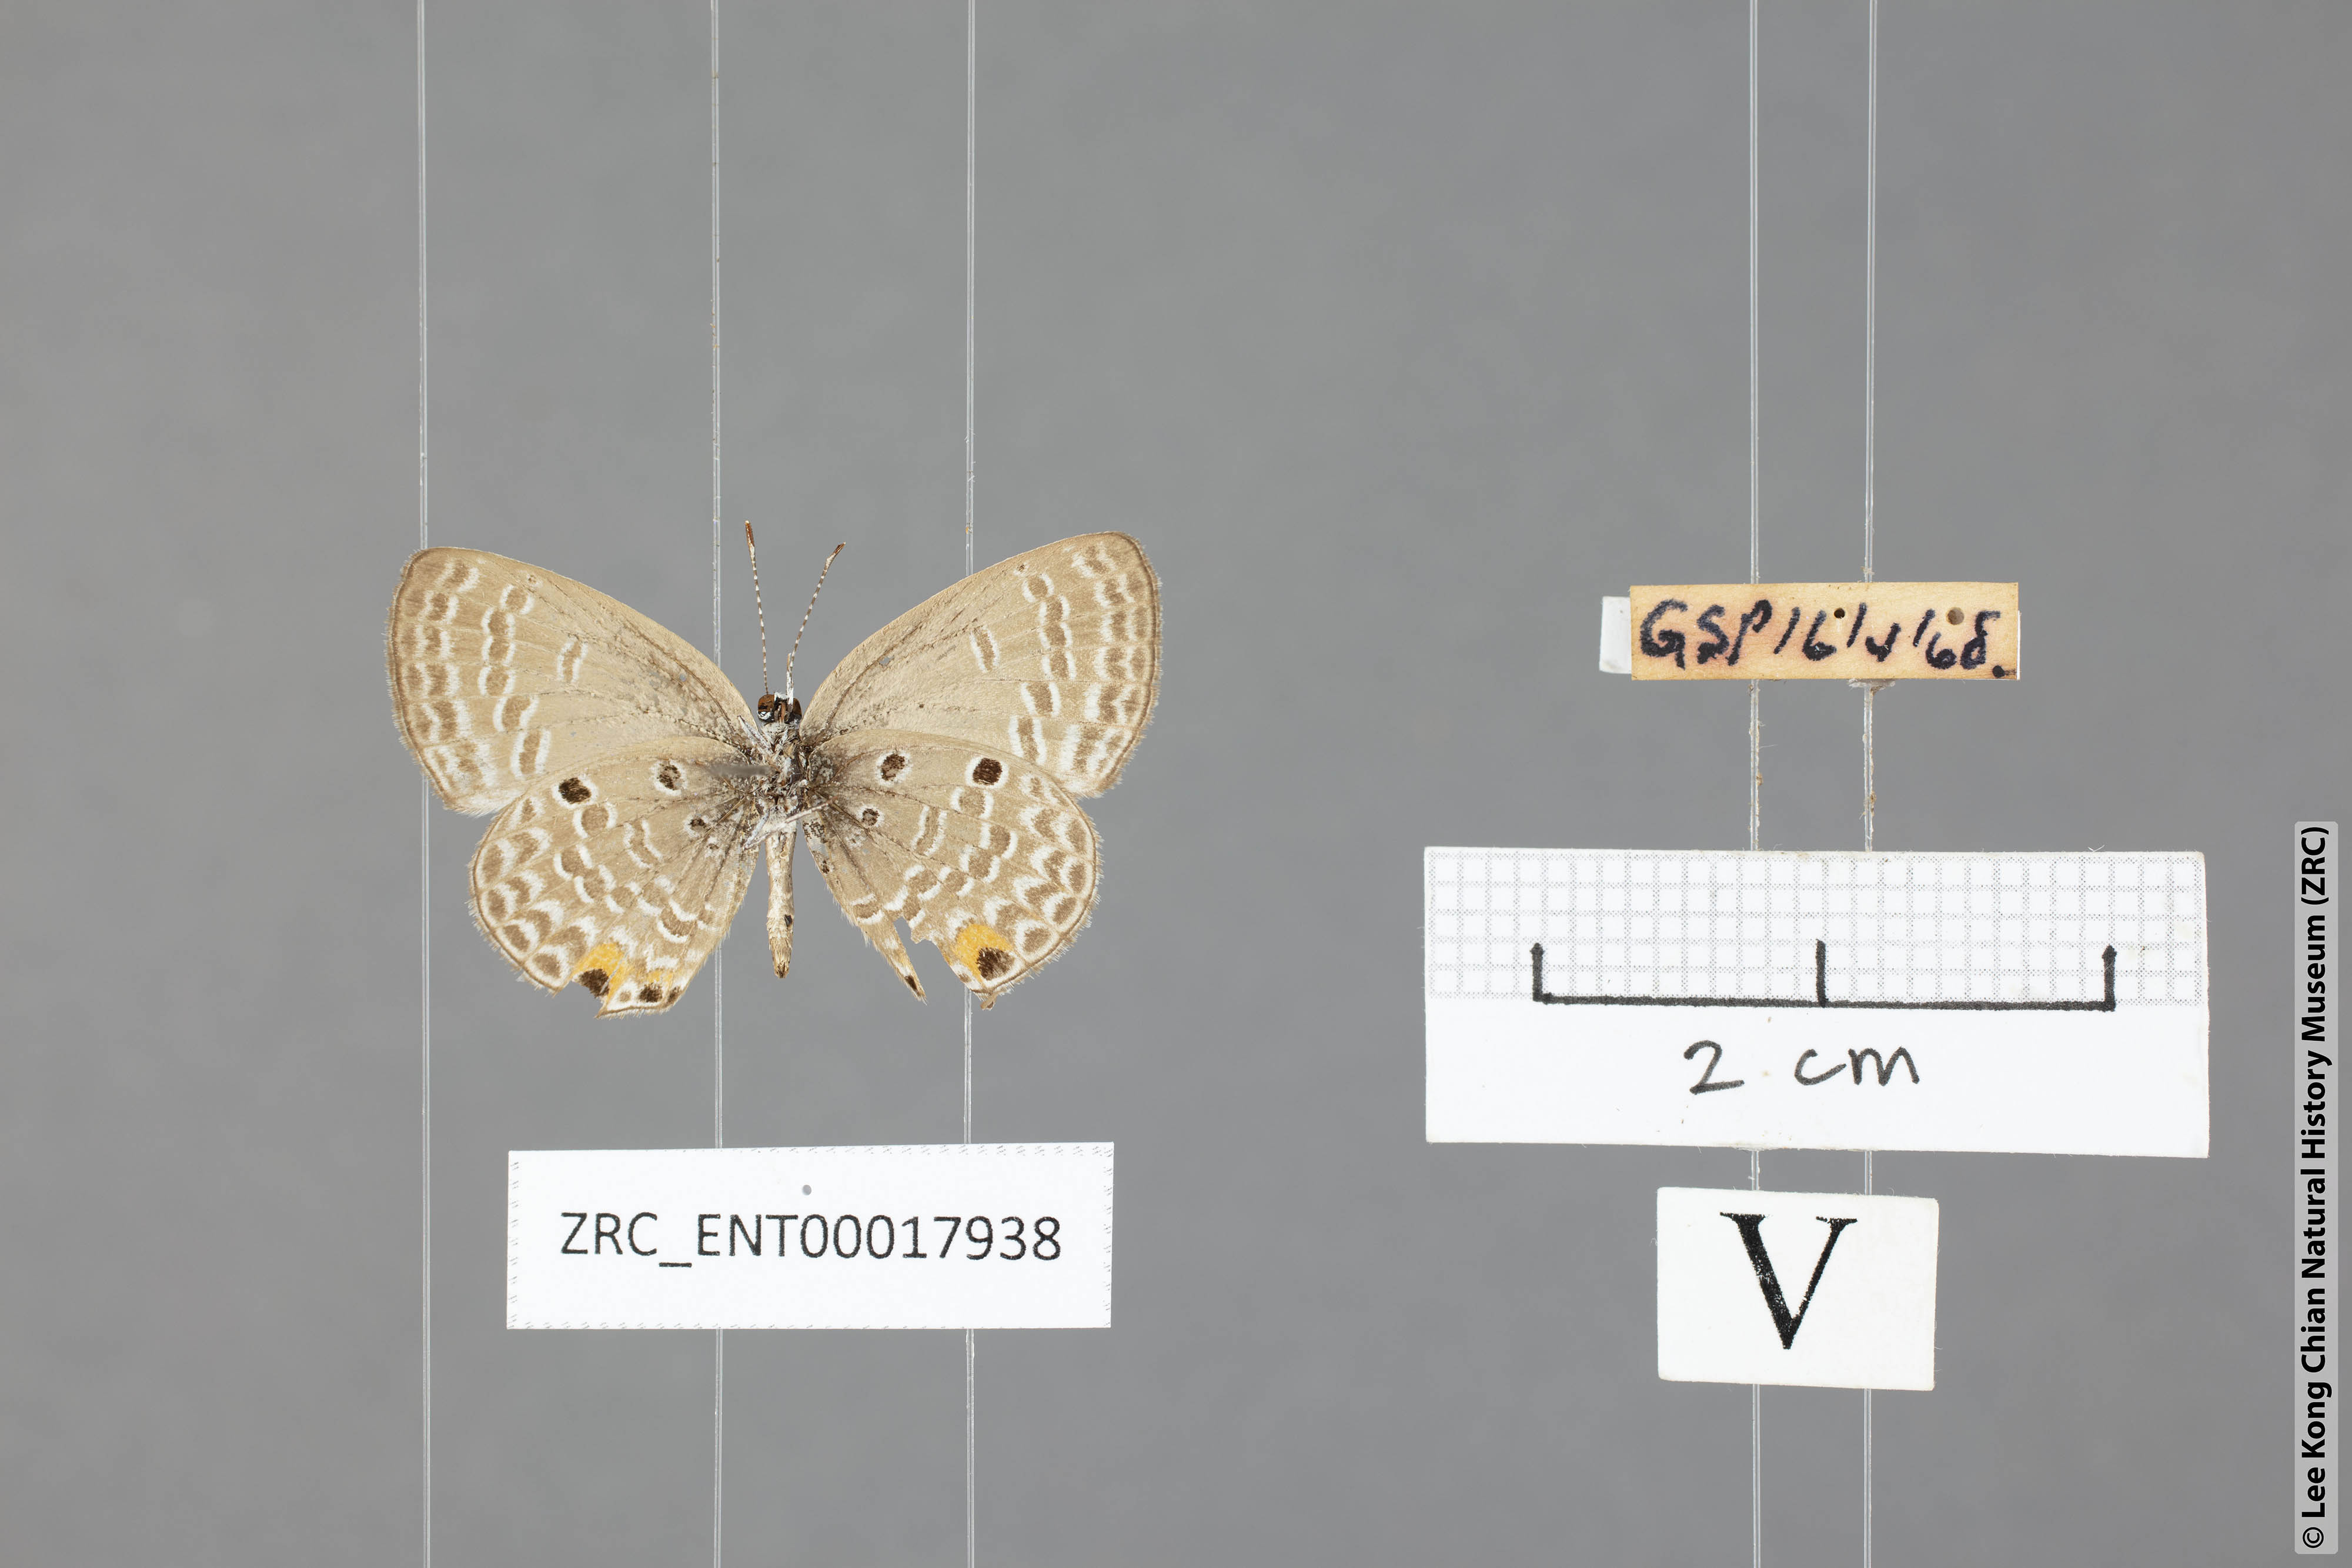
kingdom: Animalia
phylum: Arthropoda
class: Insecta
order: Lepidoptera
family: Lycaenidae
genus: Edales
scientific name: Edales pandava
